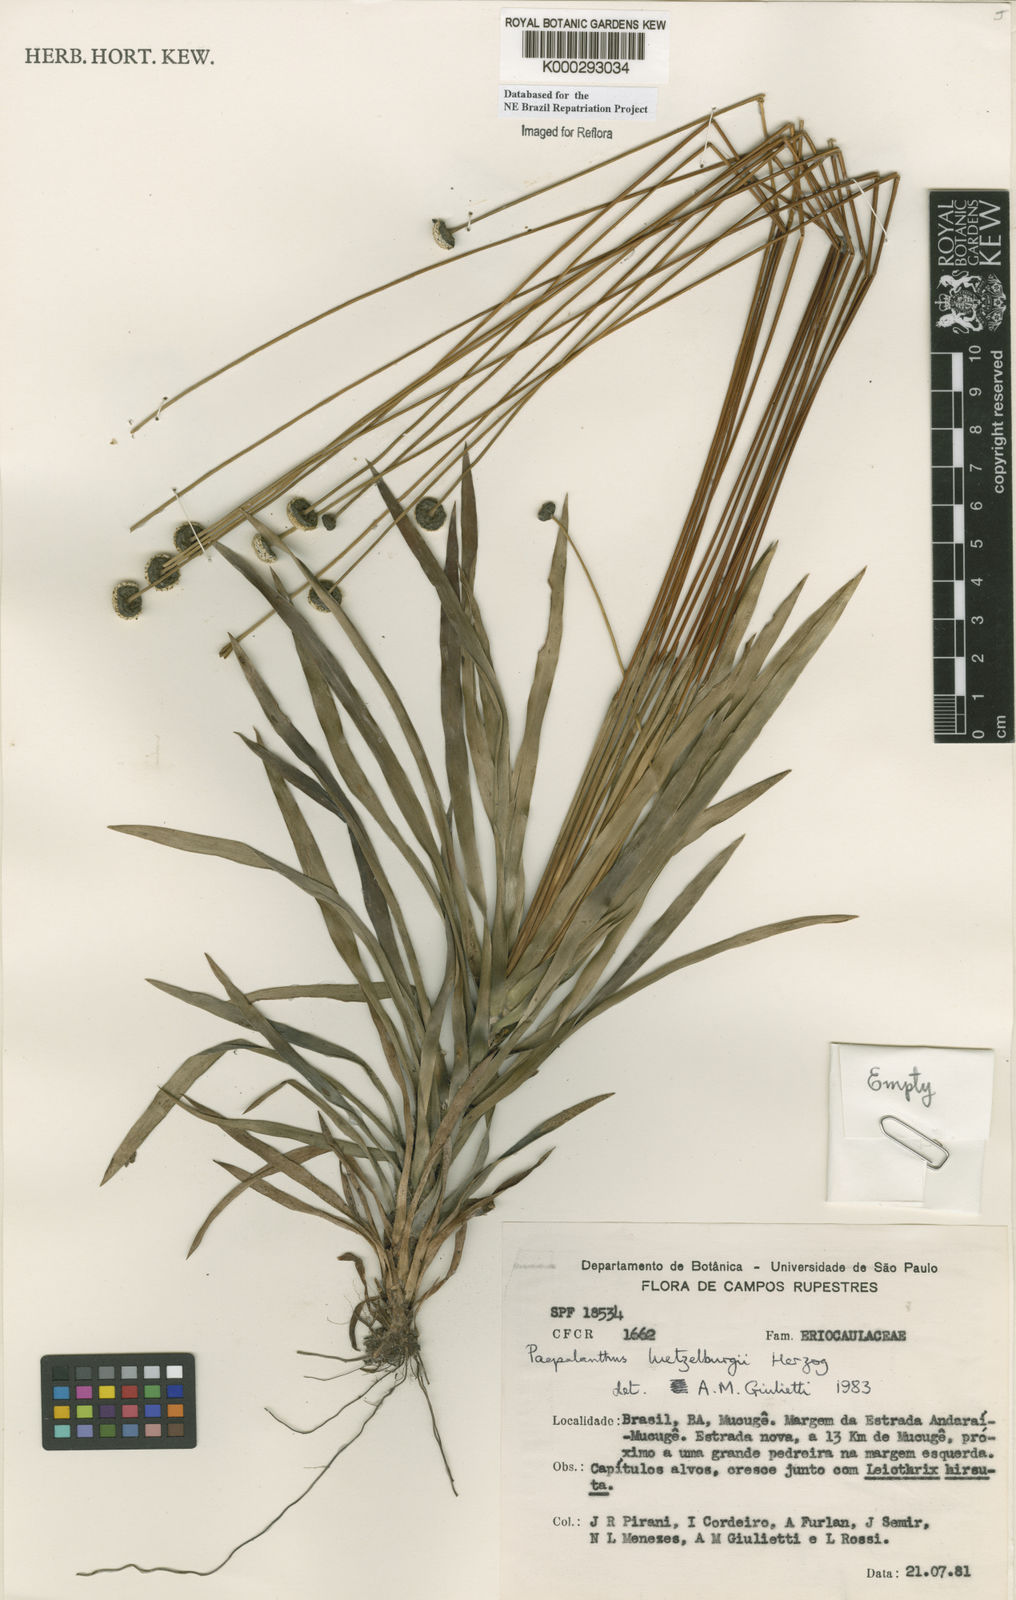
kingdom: Plantae
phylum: Tracheophyta
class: Liliopsida
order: Poales
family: Eriocaulaceae
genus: Paepalanthus
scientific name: Paepalanthus luetzelburgii
